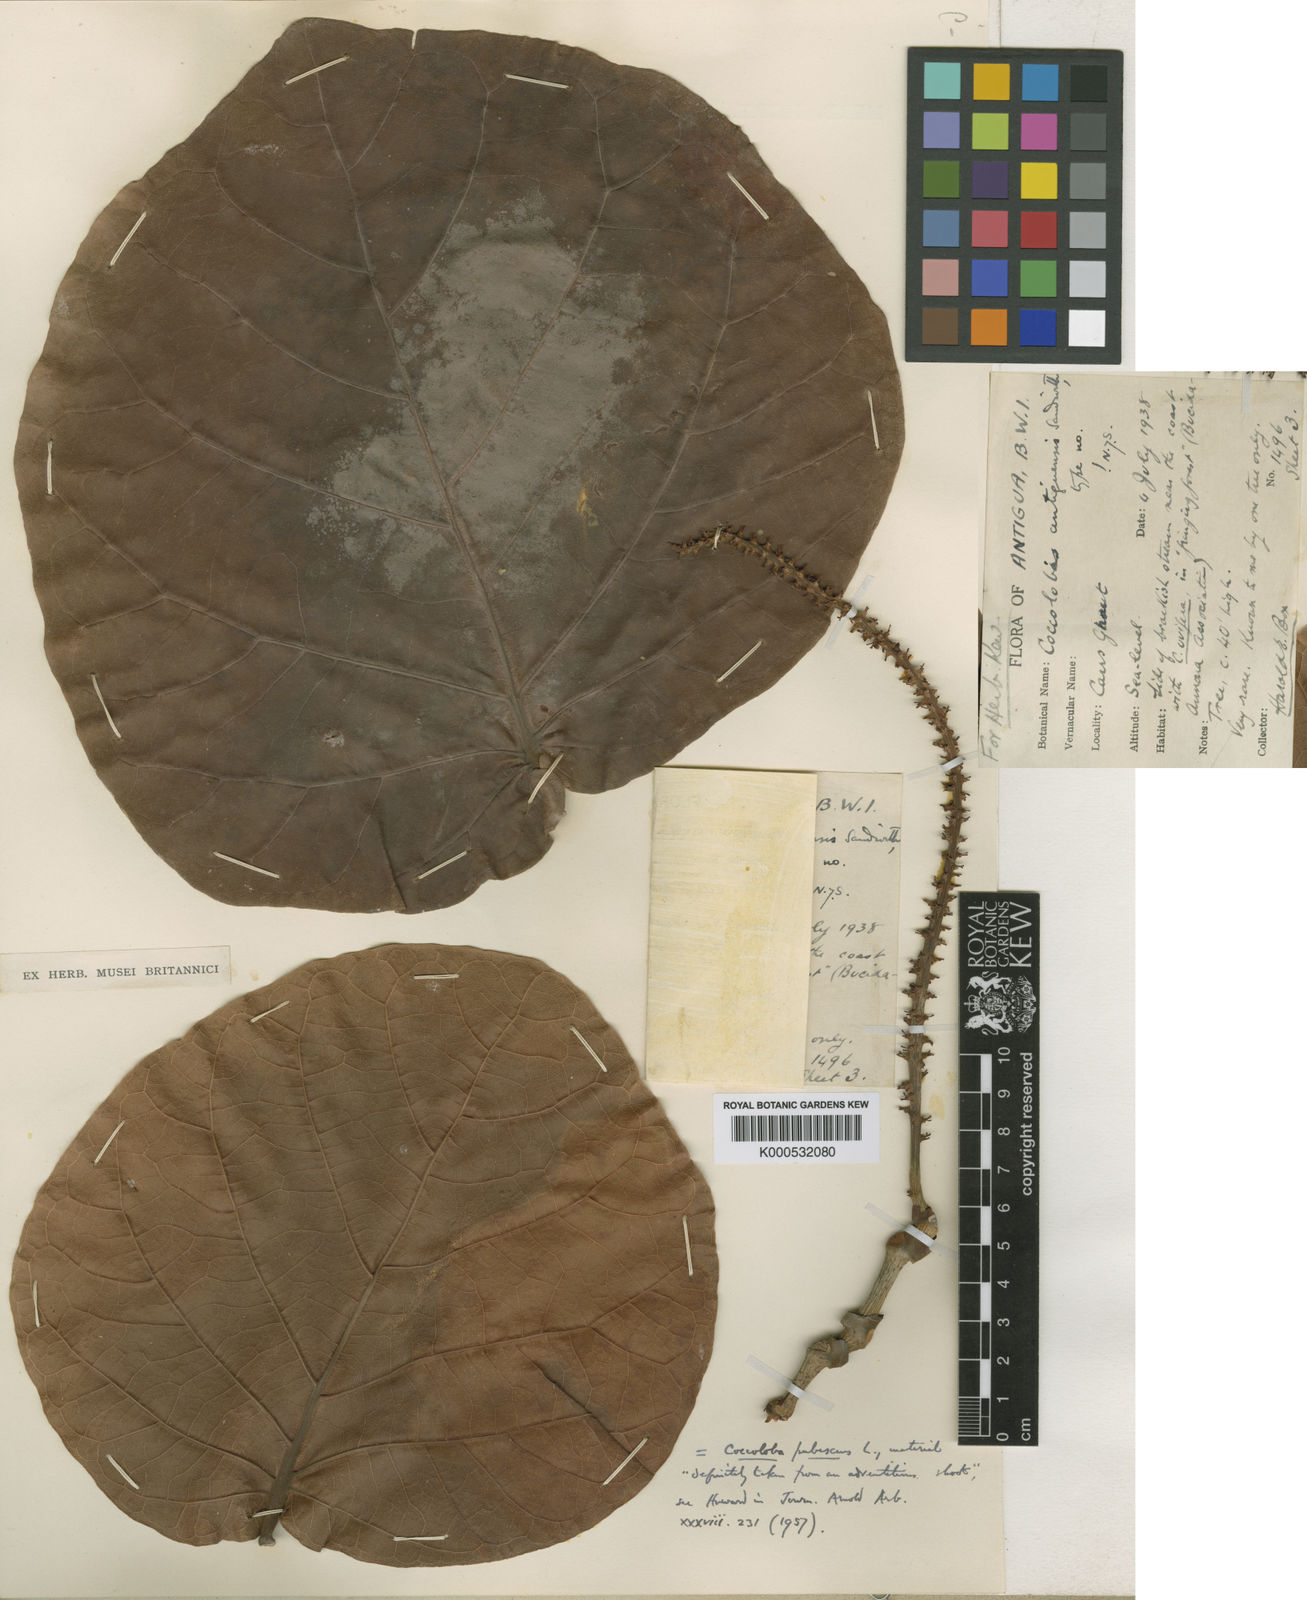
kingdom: Plantae
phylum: Tracheophyta
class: Magnoliopsida
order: Caryophyllales
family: Polygonaceae
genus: Coccoloba
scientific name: Coccoloba pubescens
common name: Mountain-grape
